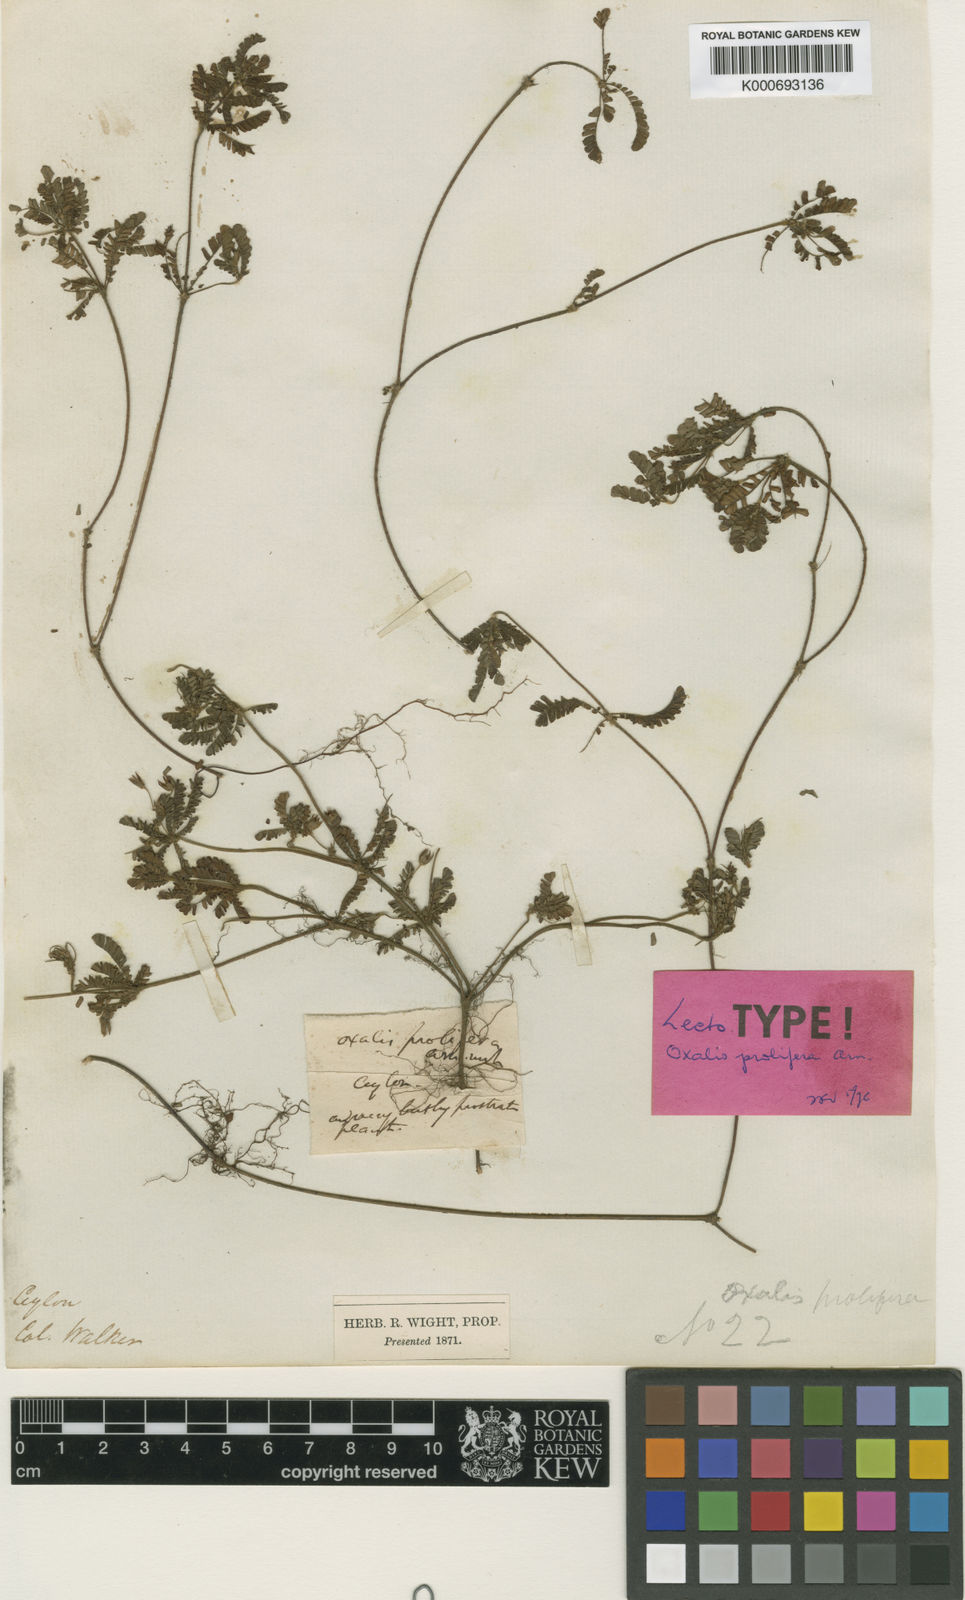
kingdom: Plantae
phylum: Tracheophyta
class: Magnoliopsida
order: Oxalidales
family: Oxalidaceae
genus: Biophytum
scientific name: Biophytum
